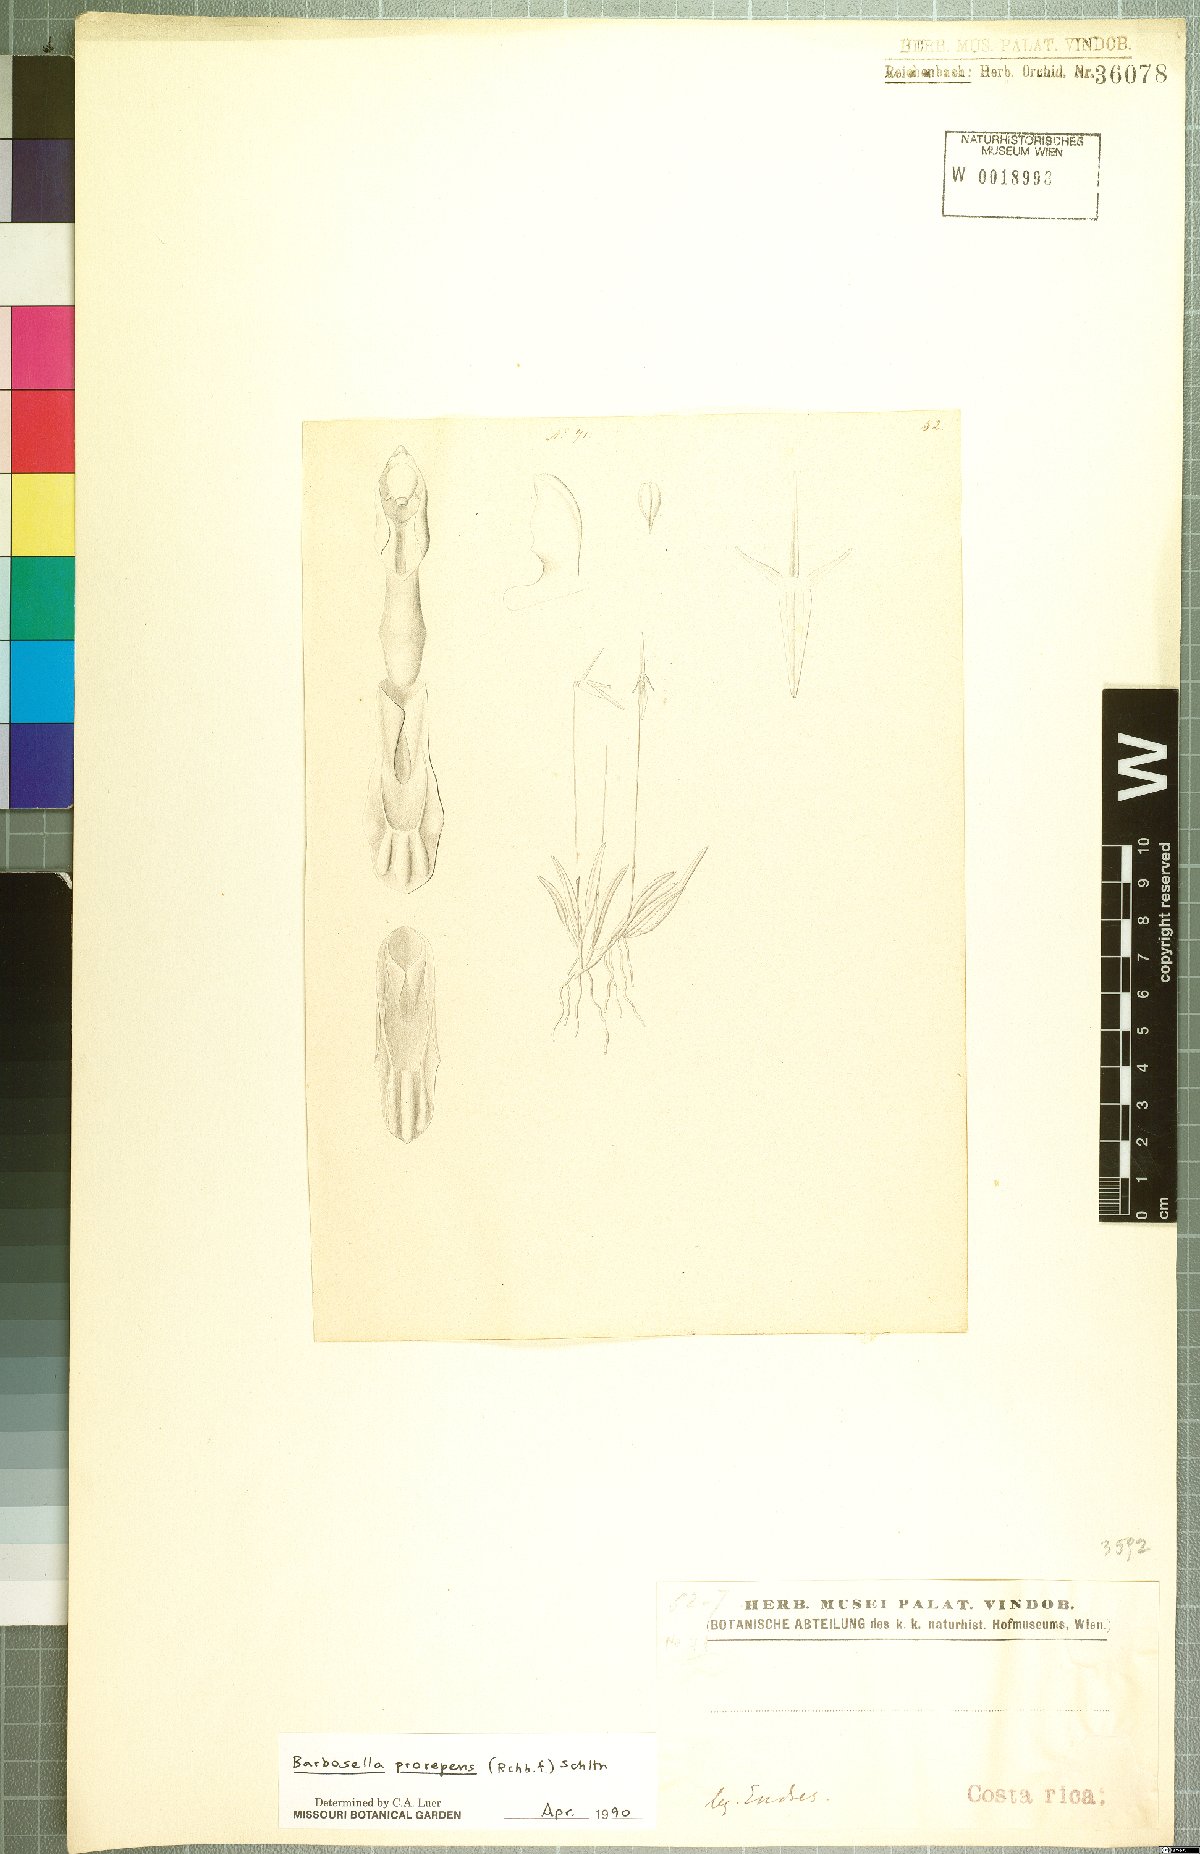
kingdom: Plantae
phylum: Tracheophyta
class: Liliopsida
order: Asparagales
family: Orchidaceae
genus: Barbosella
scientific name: Barbosella prorepens
